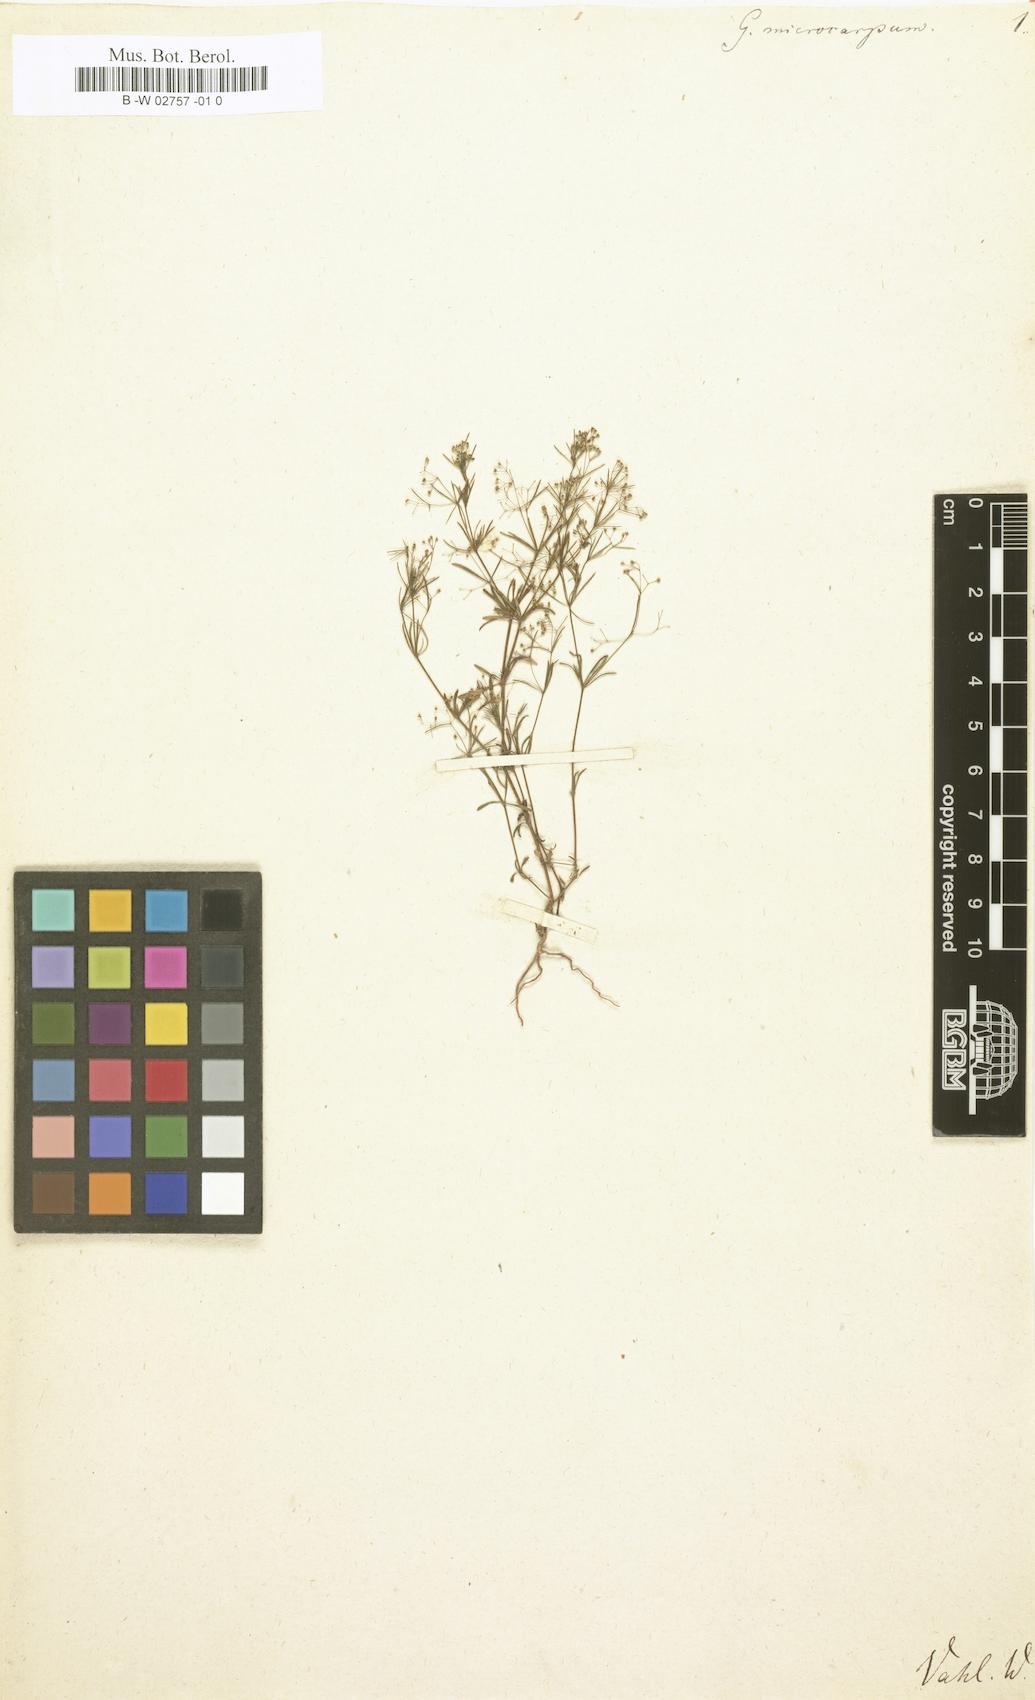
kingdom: Plantae
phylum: Tracheophyta
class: Magnoliopsida
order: Gentianales
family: Rubiaceae
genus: Galium
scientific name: Galium setaceum
